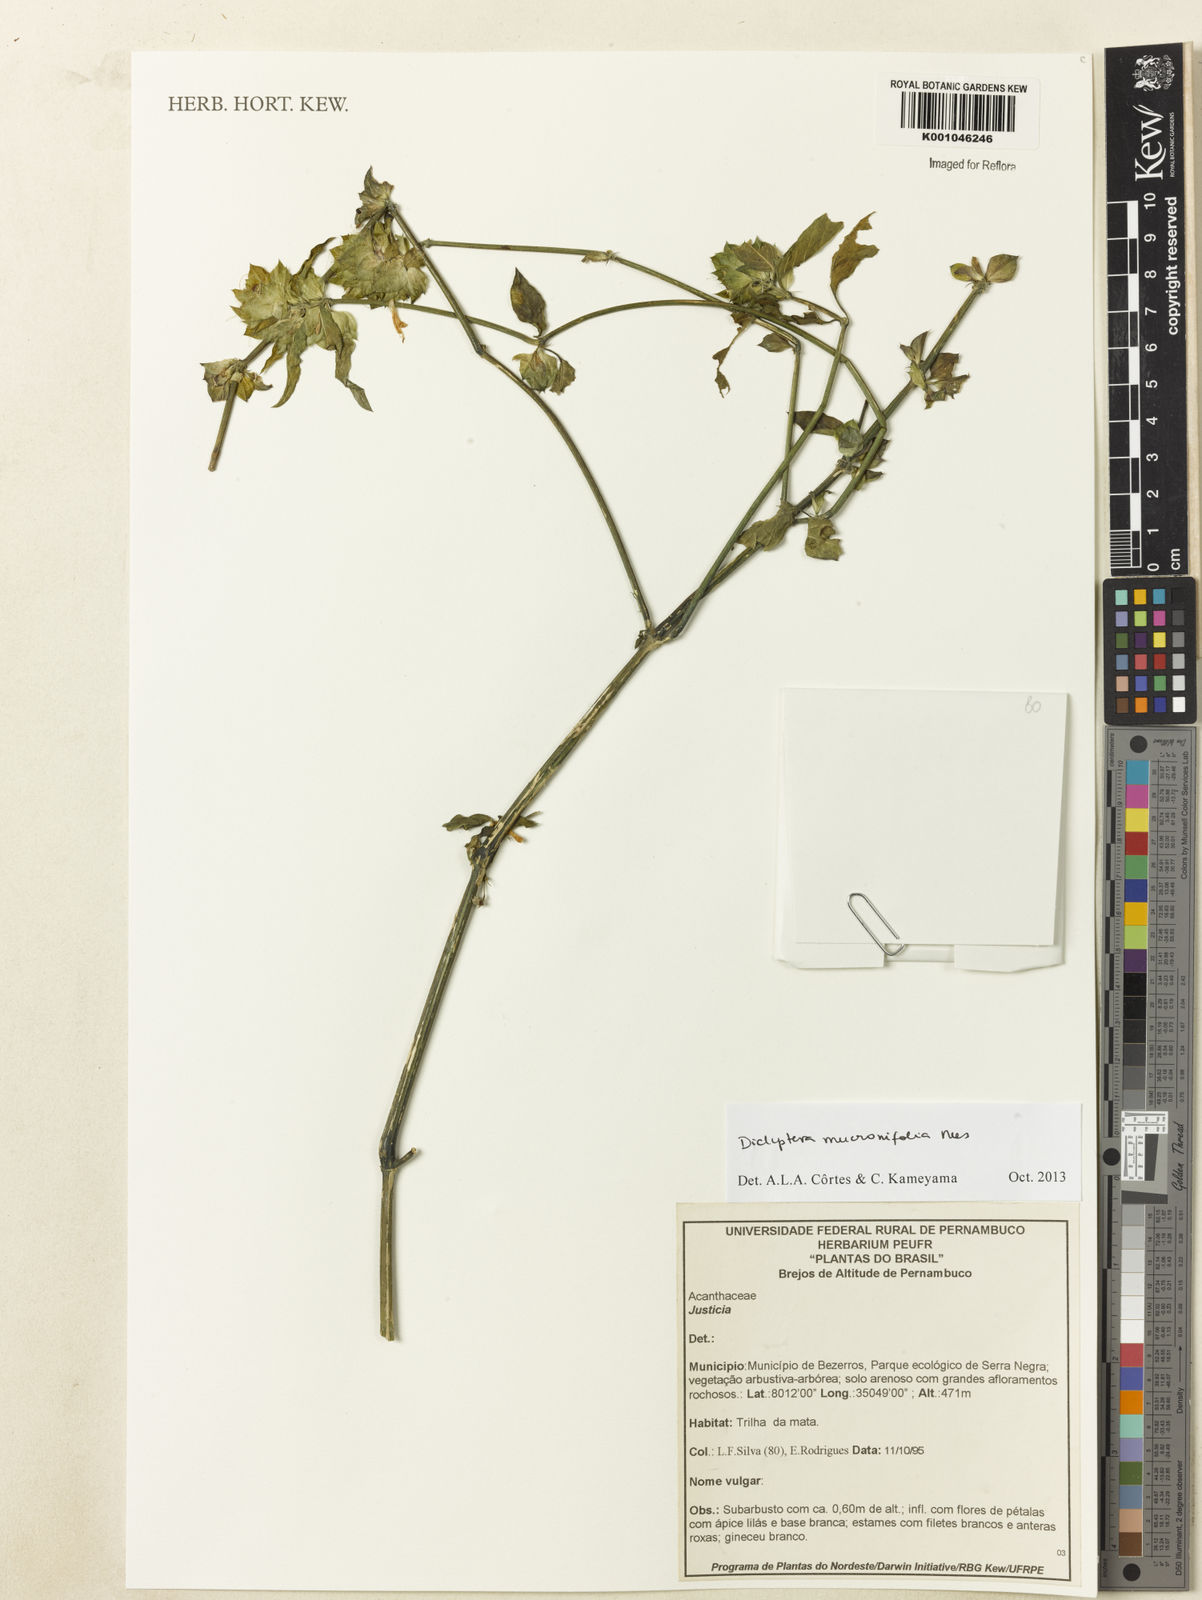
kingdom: Plantae
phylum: Tracheophyta
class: Magnoliopsida
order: Lamiales
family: Acanthaceae
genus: Dicliptera
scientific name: Dicliptera mucronifolia
